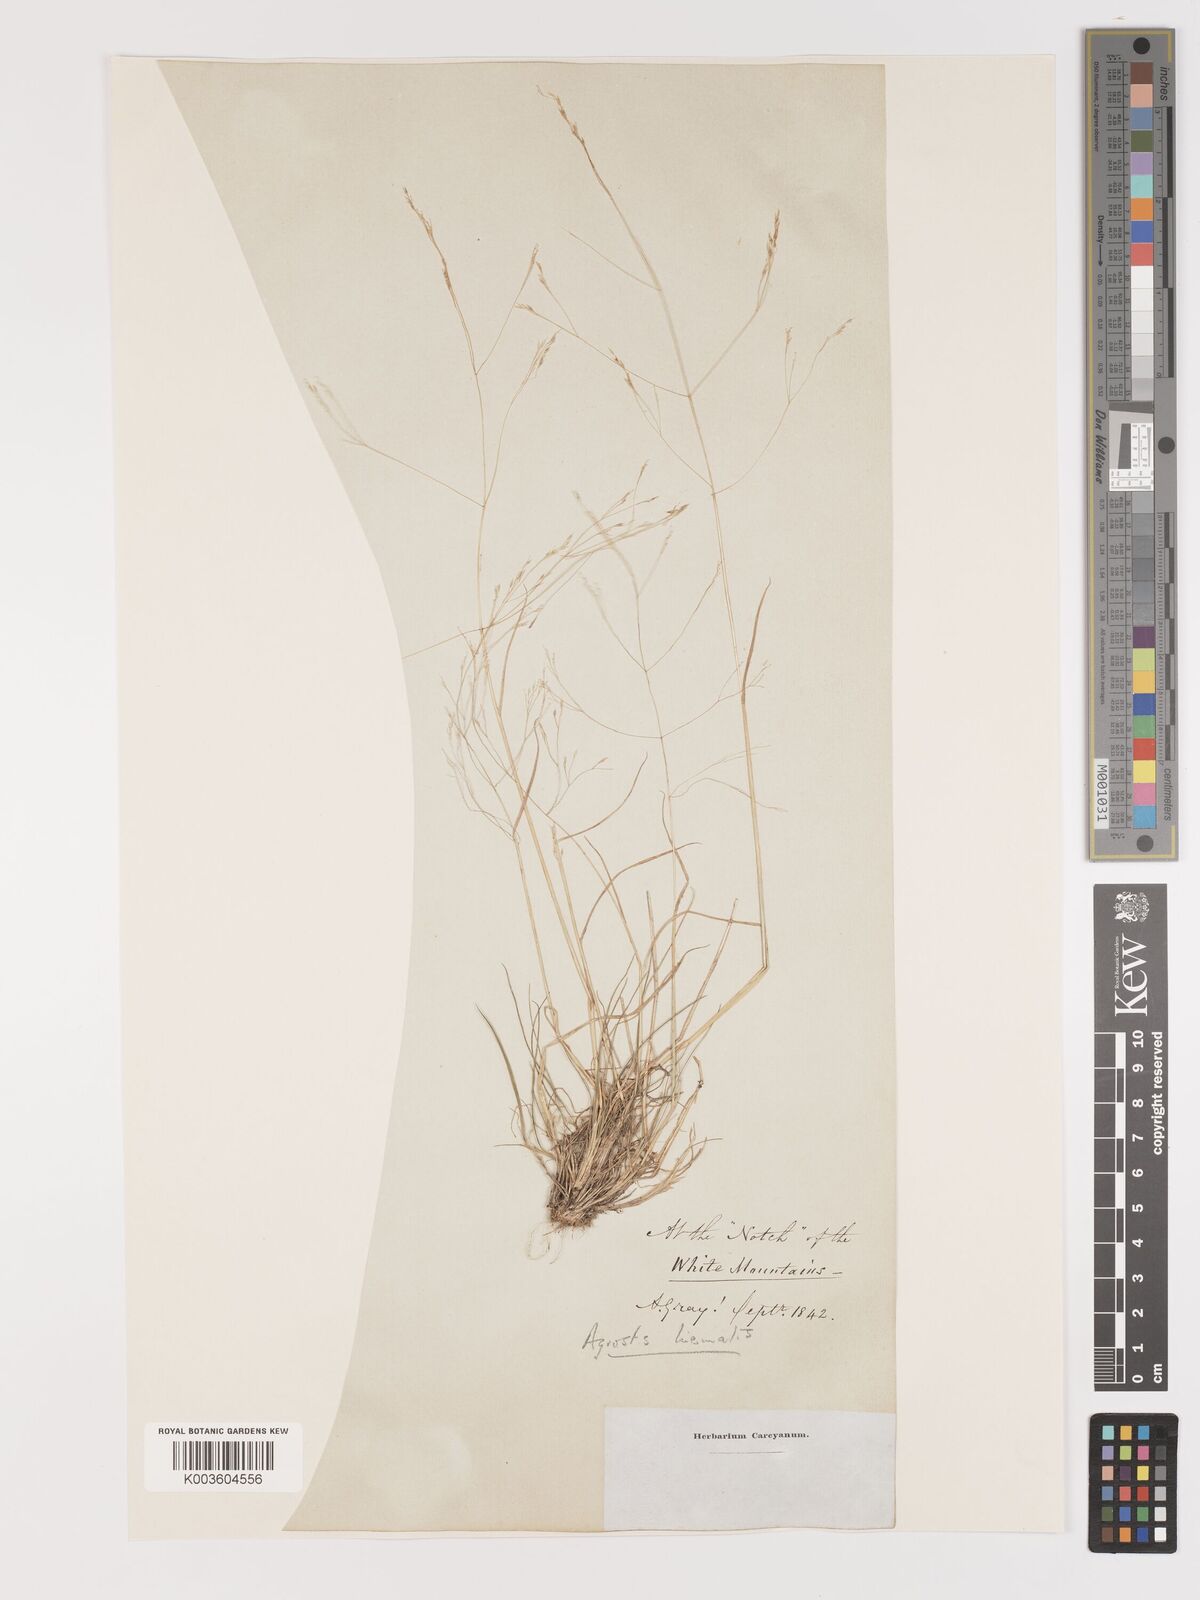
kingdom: Plantae
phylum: Tracheophyta
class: Liliopsida
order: Poales
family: Poaceae
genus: Agrostis
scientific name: Agrostis hyemalis
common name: Small bent
